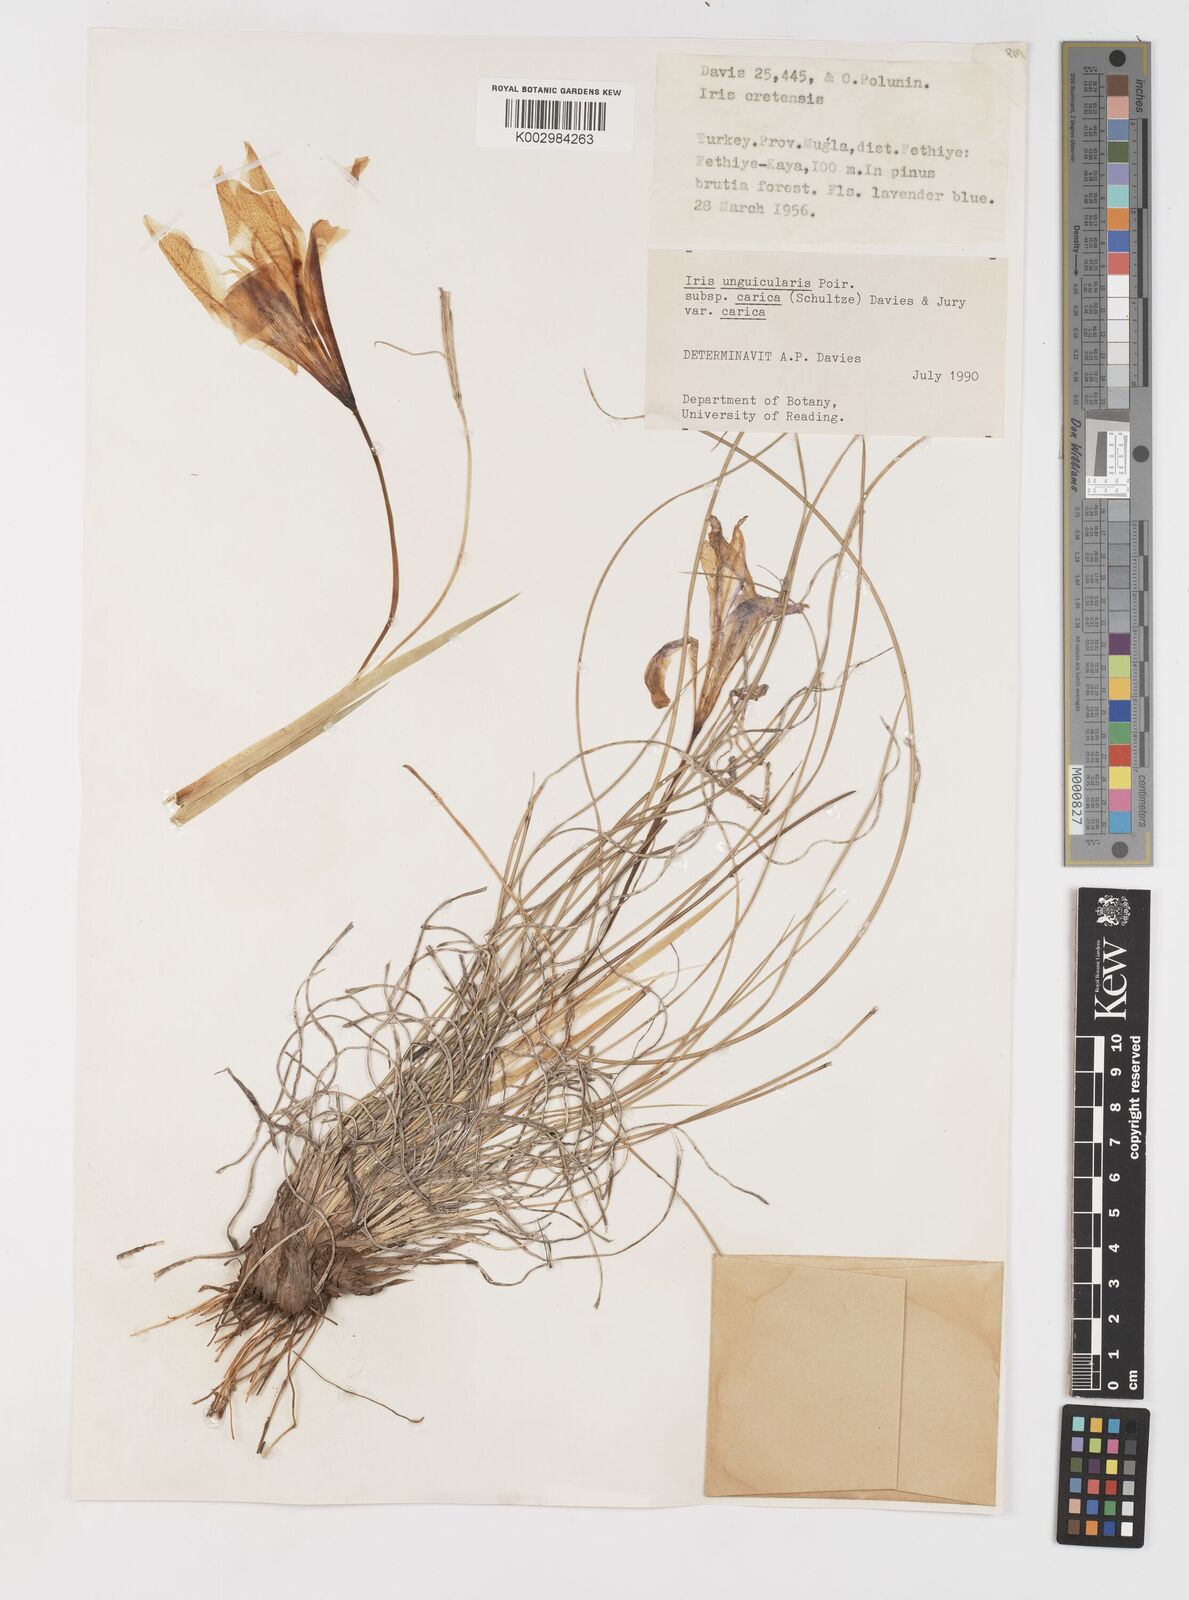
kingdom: Plantae
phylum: Tracheophyta
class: Liliopsida
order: Asparagales
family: Iridaceae
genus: Iris
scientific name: Iris unguicularis
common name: Algerian iris
